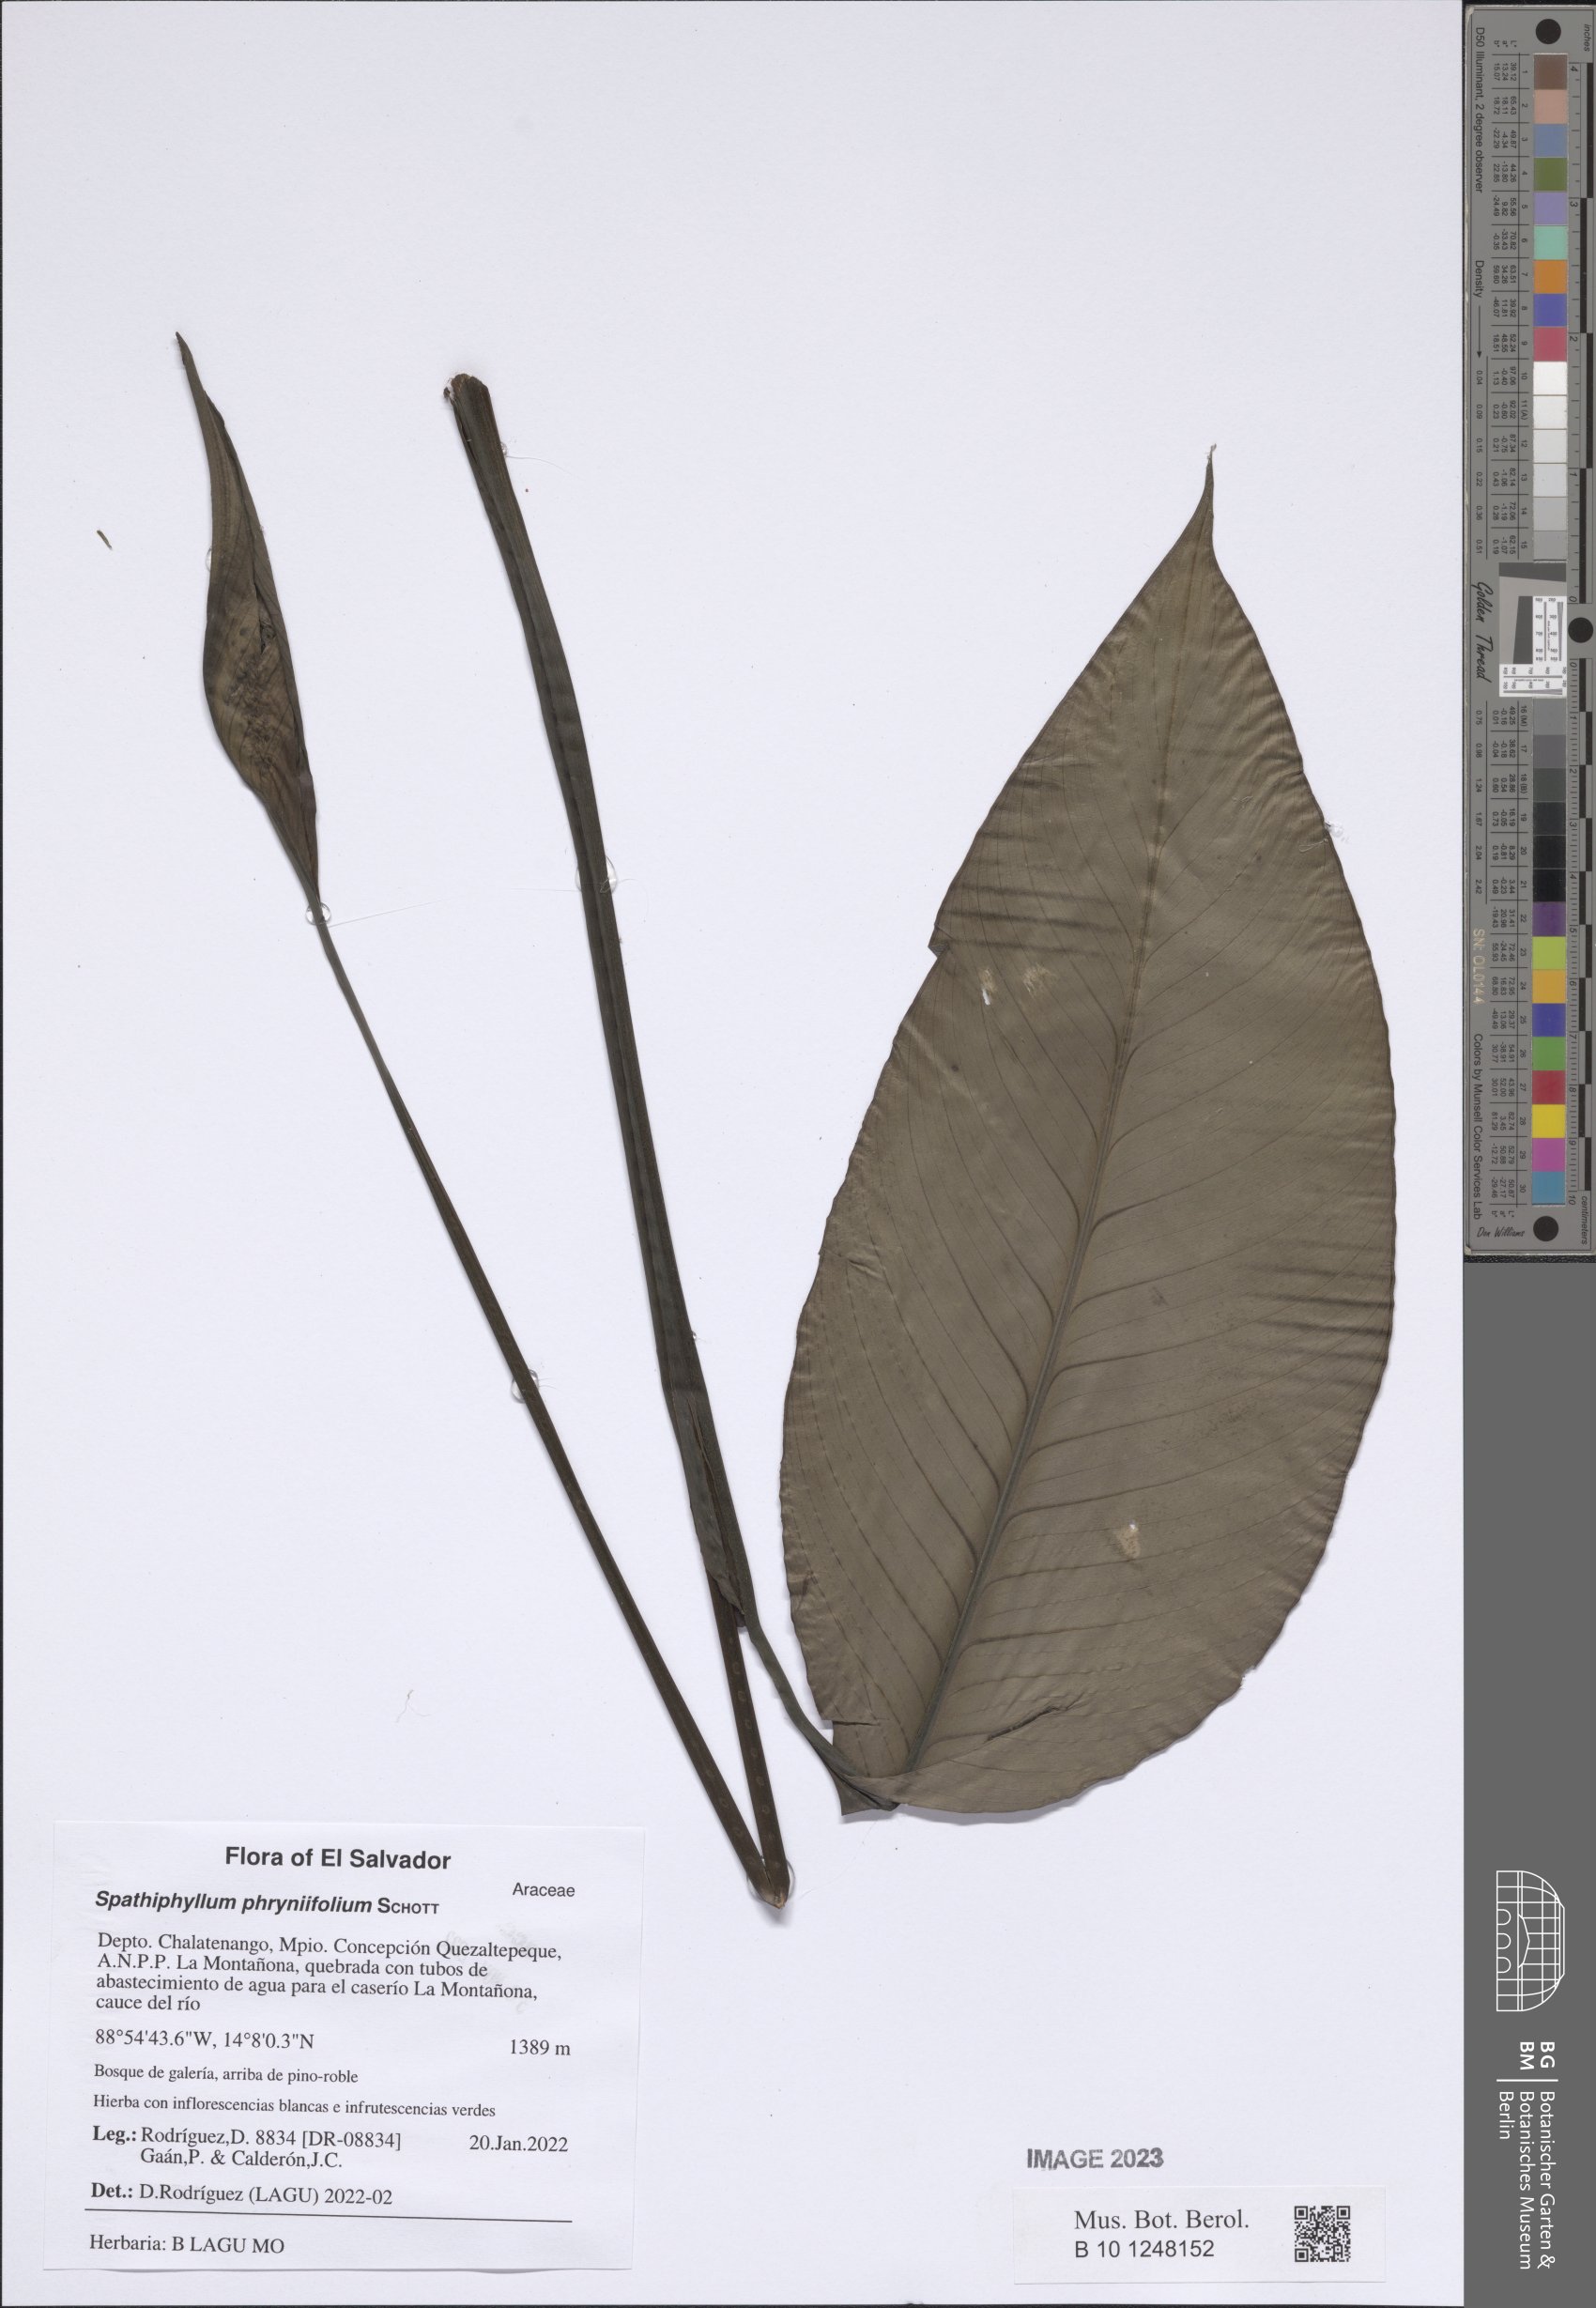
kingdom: Plantae
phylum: Tracheophyta
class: Liliopsida
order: Alismatales
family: Araceae
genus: Spathiphyllum
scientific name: Spathiphyllum phryniifolium
